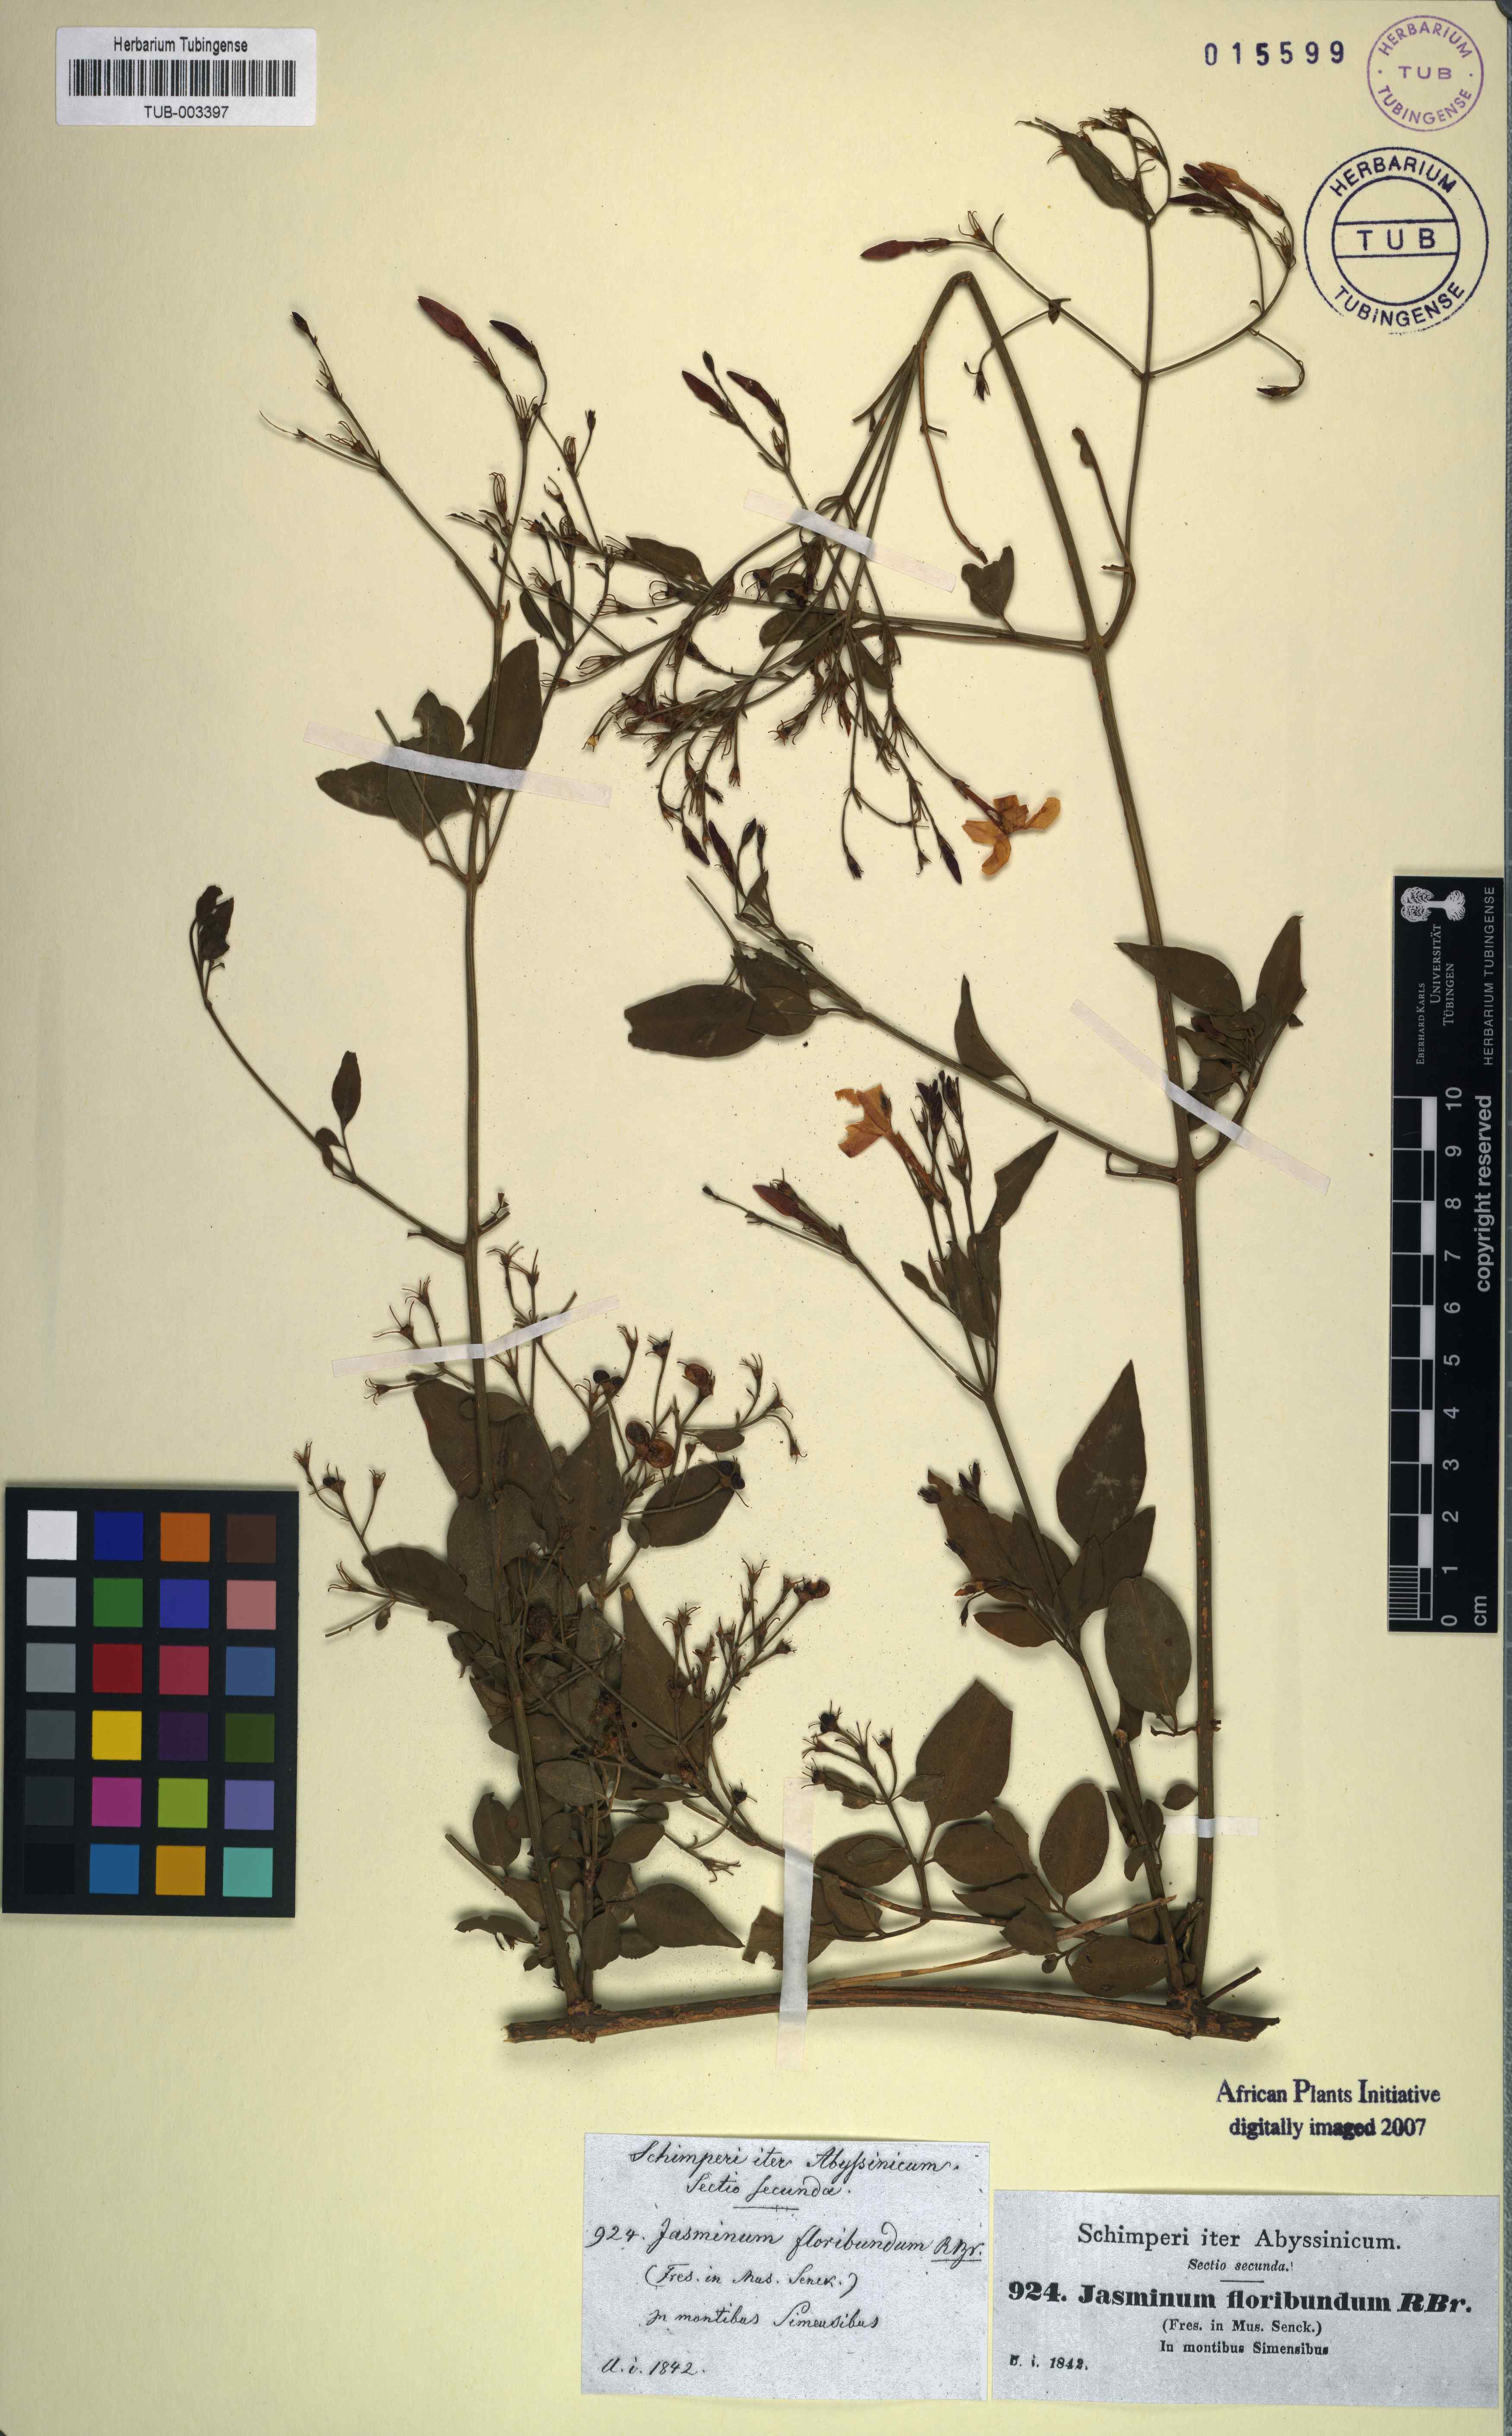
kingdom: Plantae
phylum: Tracheophyta
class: Magnoliopsida
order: Lamiales
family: Oleaceae
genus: Jasminum
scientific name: Jasminum grandiflorum
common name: Catalonian jasmine
